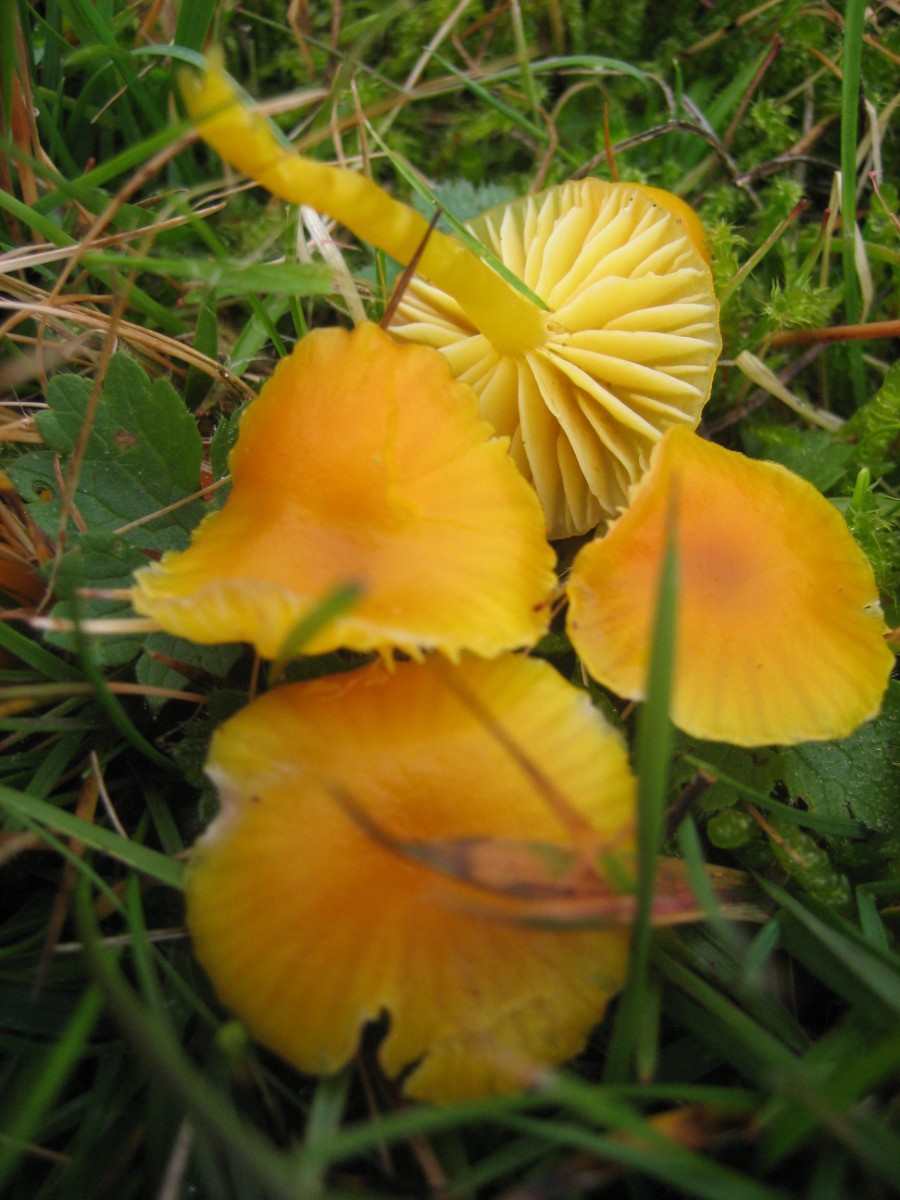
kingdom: Fungi
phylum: Basidiomycota
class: Agaricomycetes
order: Agaricales
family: Hygrophoraceae
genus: Hygrocybe
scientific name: Hygrocybe ceracea
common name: voksgul vokshat
